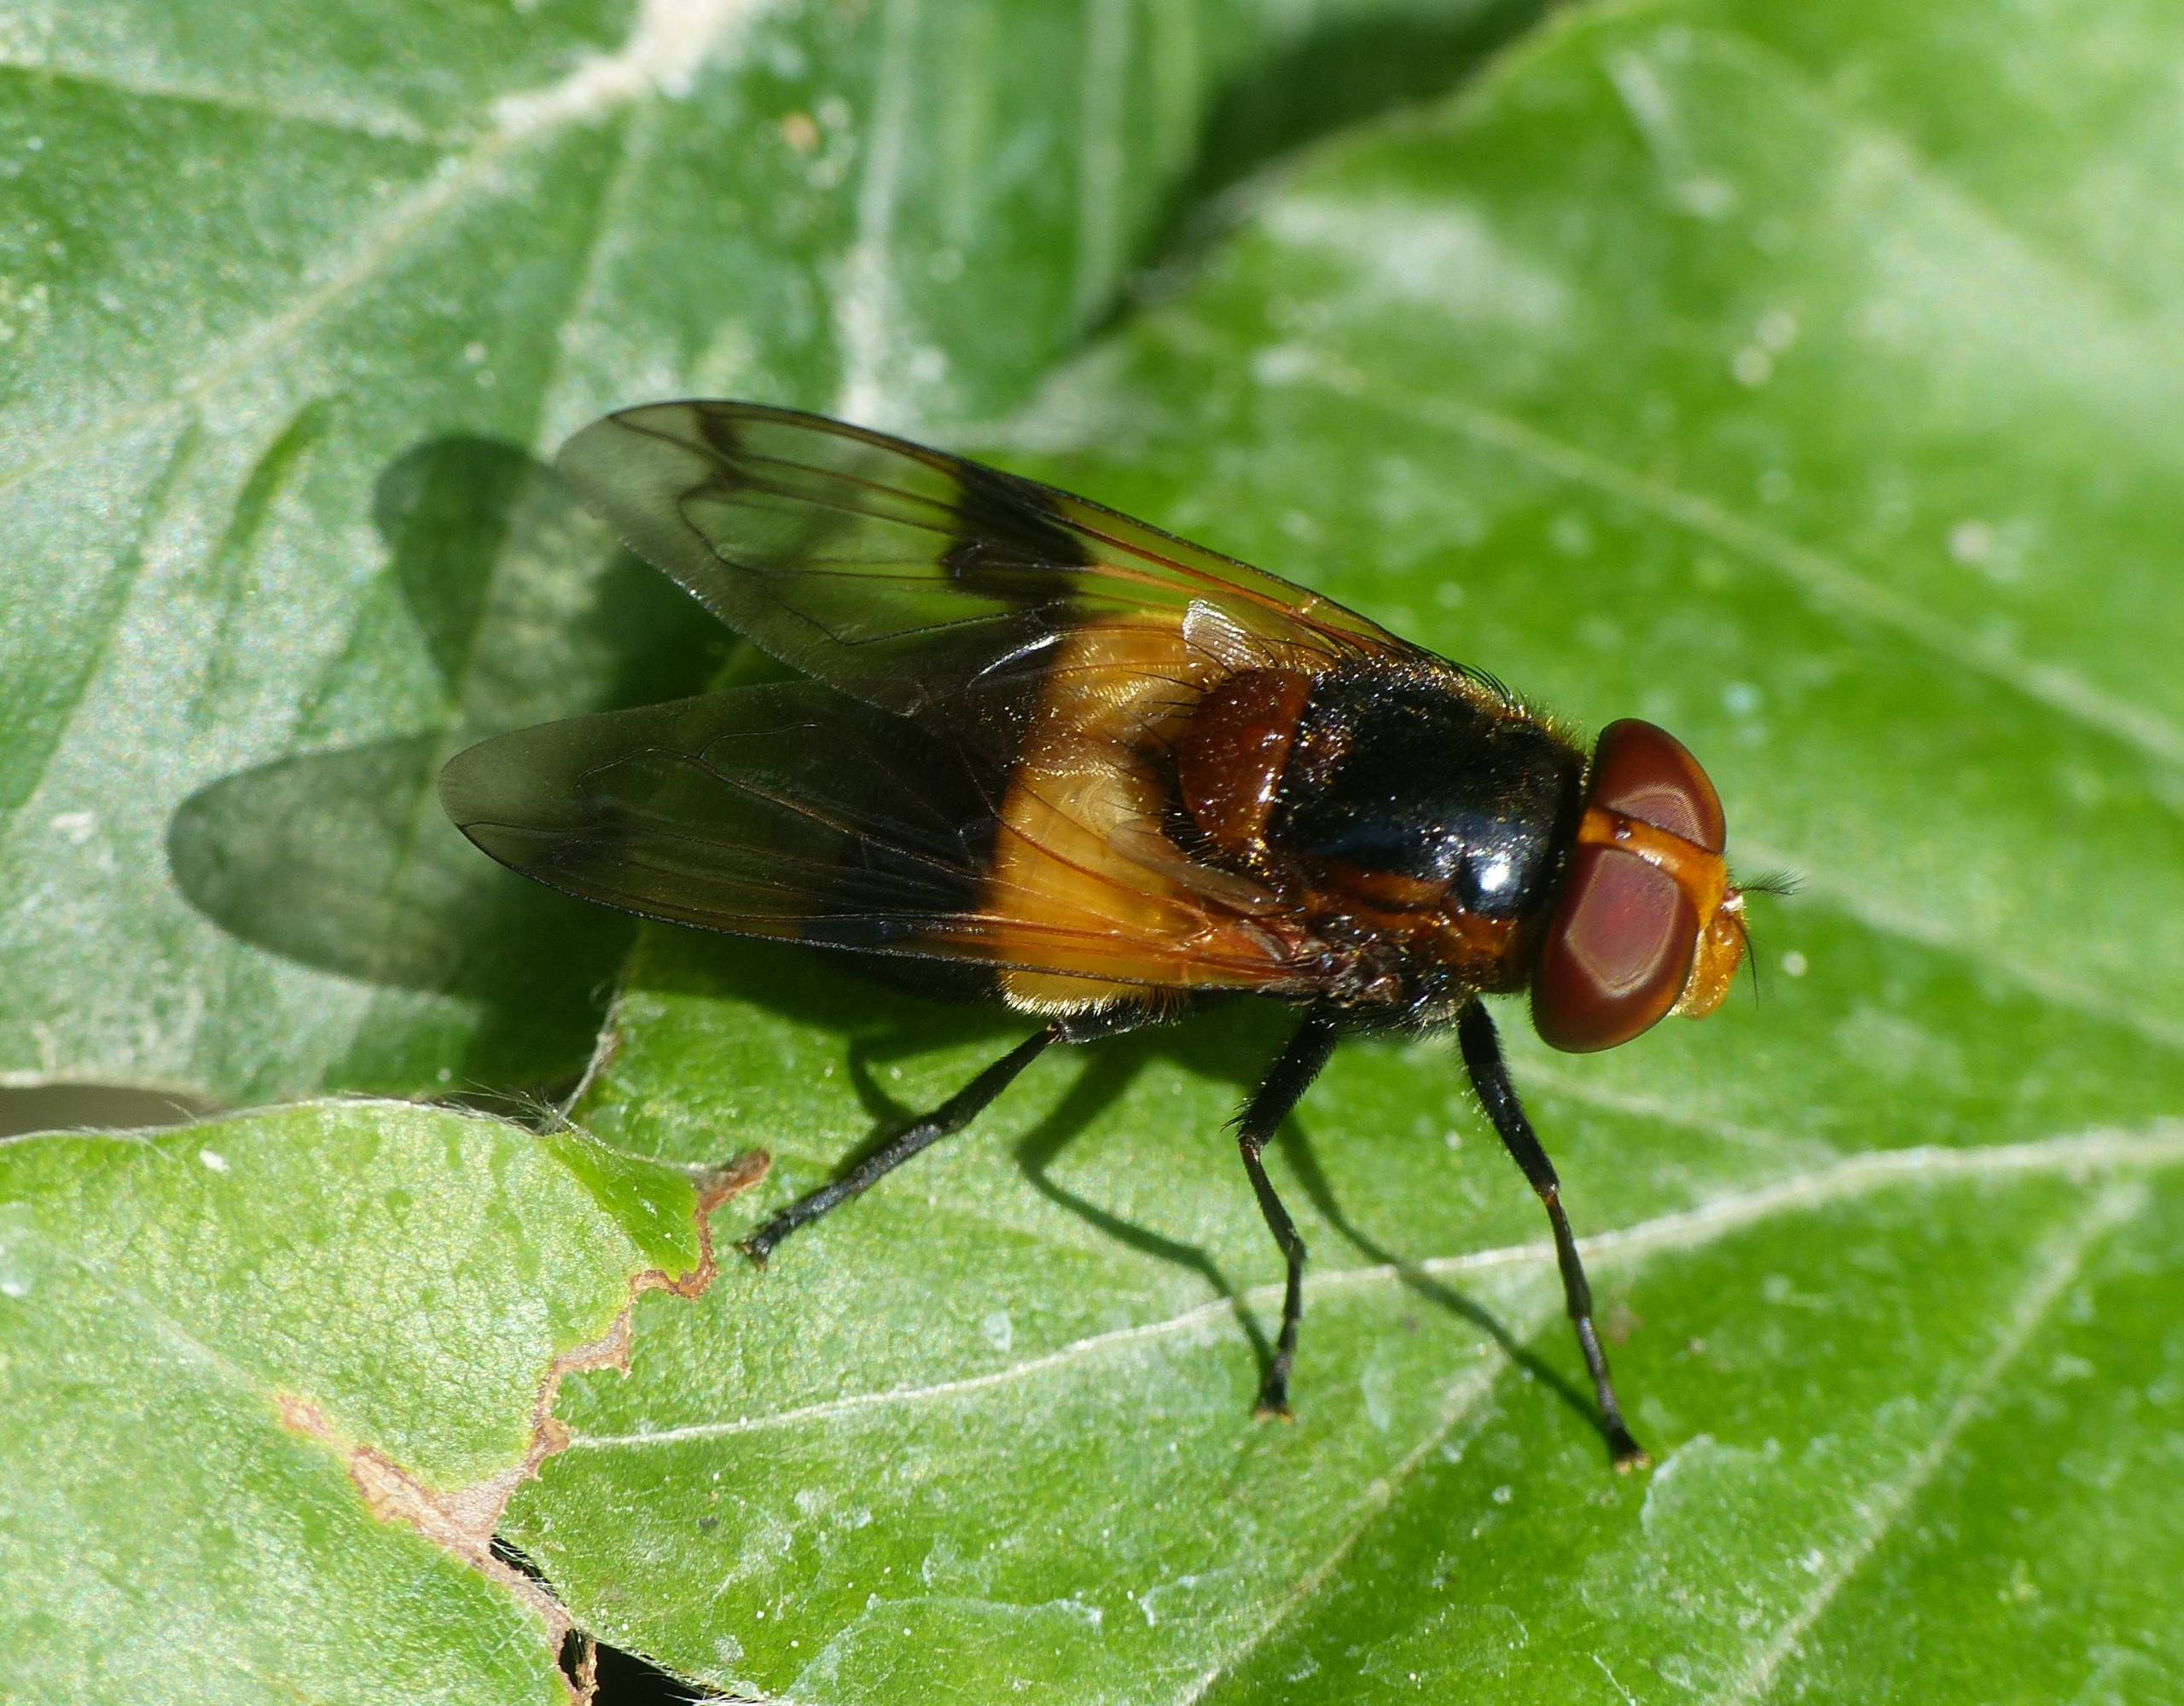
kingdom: Animalia
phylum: Arthropoda
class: Insecta
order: Diptera
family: Syrphidae
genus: Volucella
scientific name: Volucella pellucens
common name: Hvidbåndet humlesvirreflue
